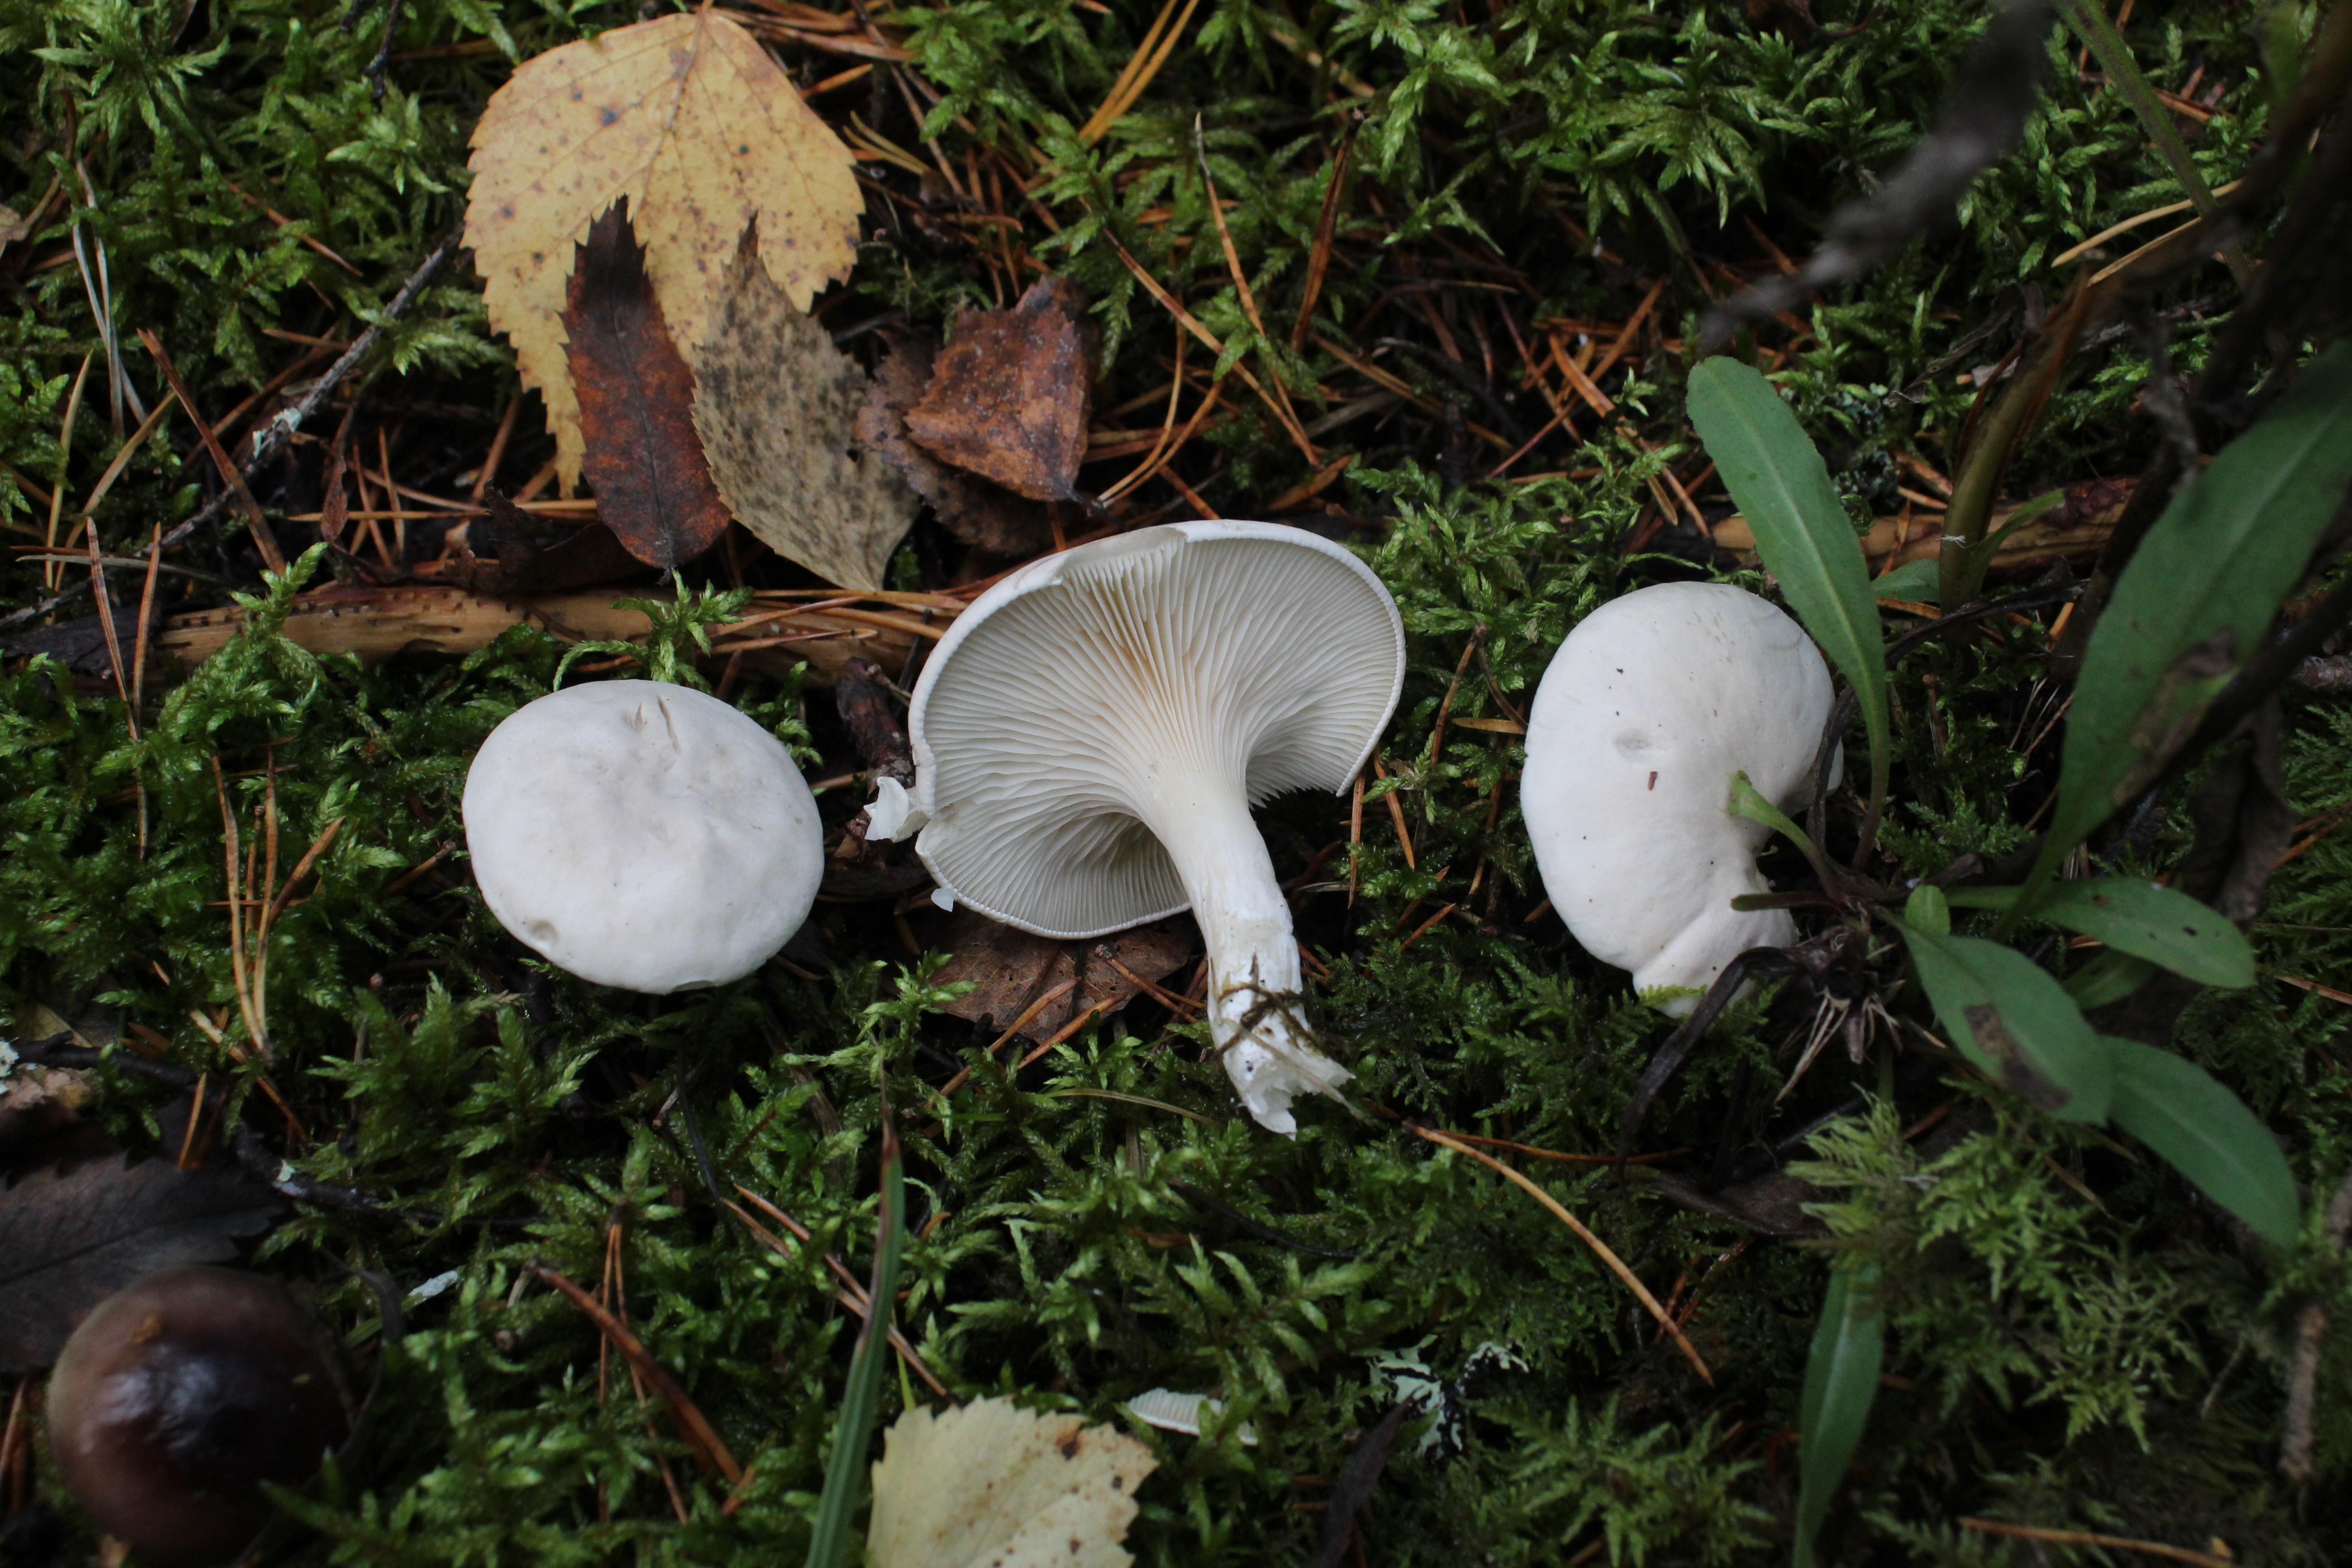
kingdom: Fungi
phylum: Basidiomycota
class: Agaricomycetes
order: Agaricales
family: Entolomataceae
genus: Clitopilus
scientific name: Clitopilus prunulus
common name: The miller
